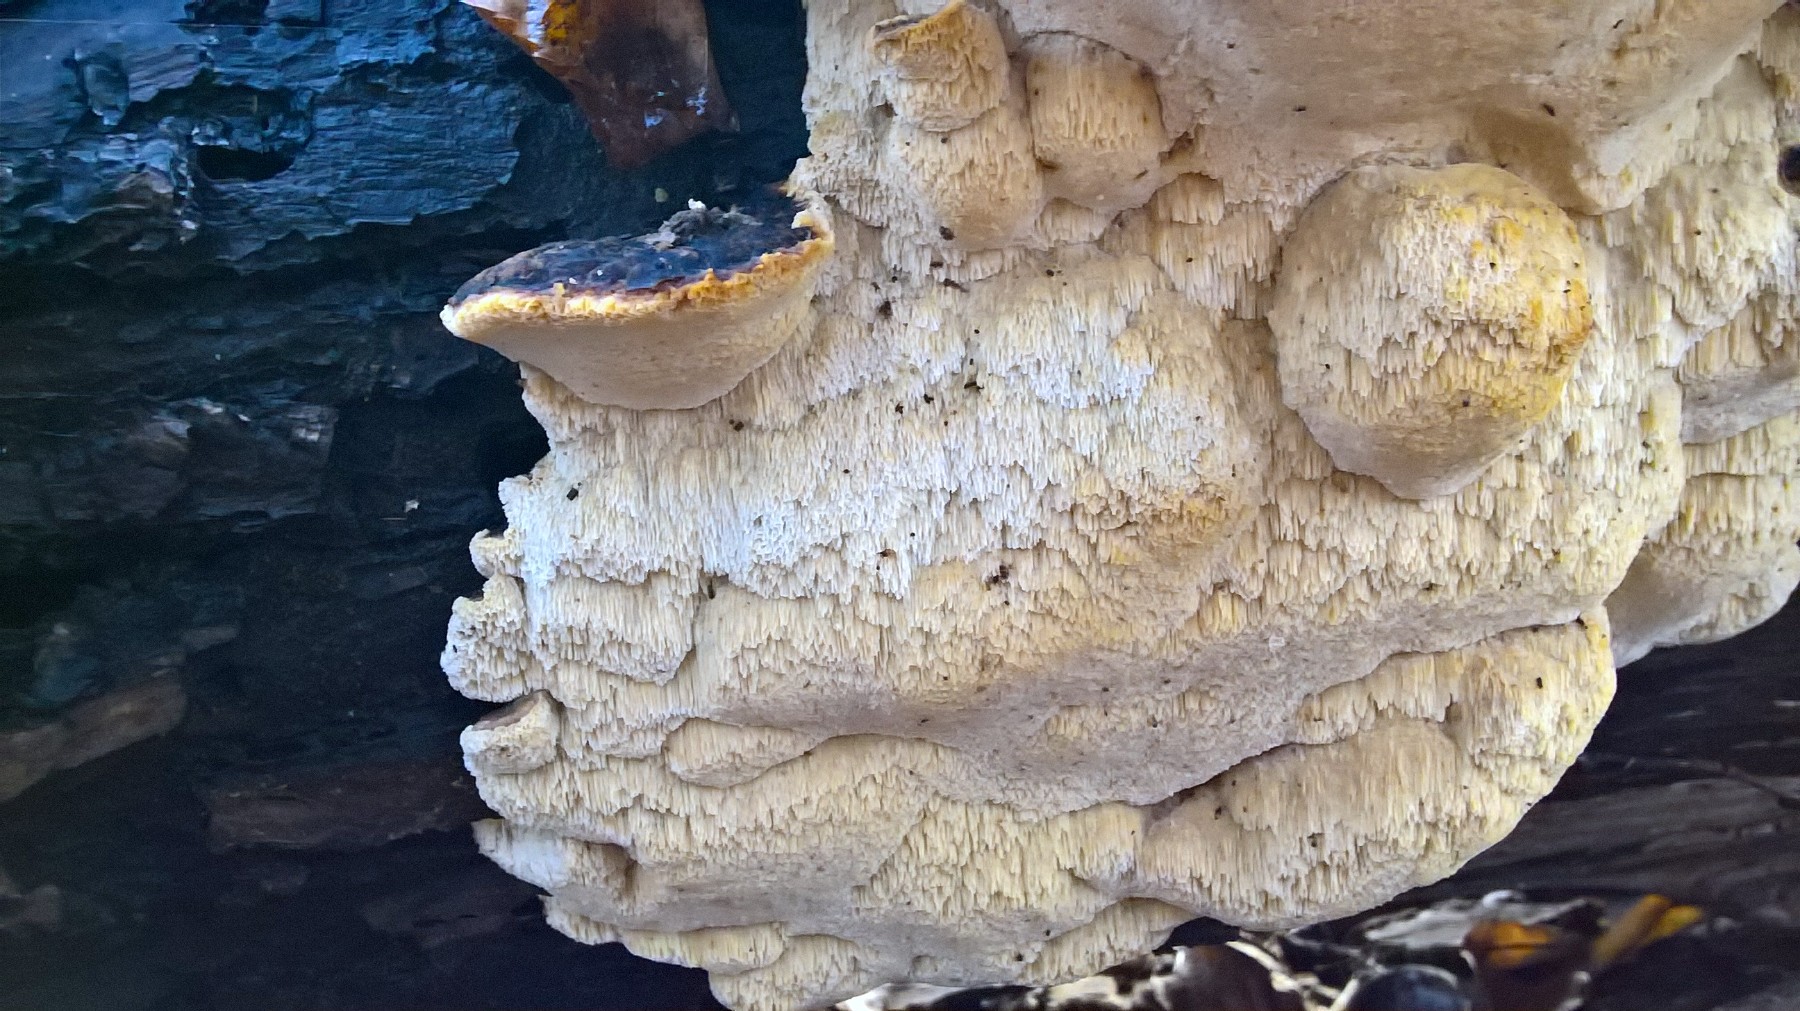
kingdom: Fungi
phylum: Basidiomycota
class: Agaricomycetes
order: Polyporales
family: Ischnodermataceae
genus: Ischnoderma
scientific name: Ischnoderma resinosum
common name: løv-tjæreporesvamp
